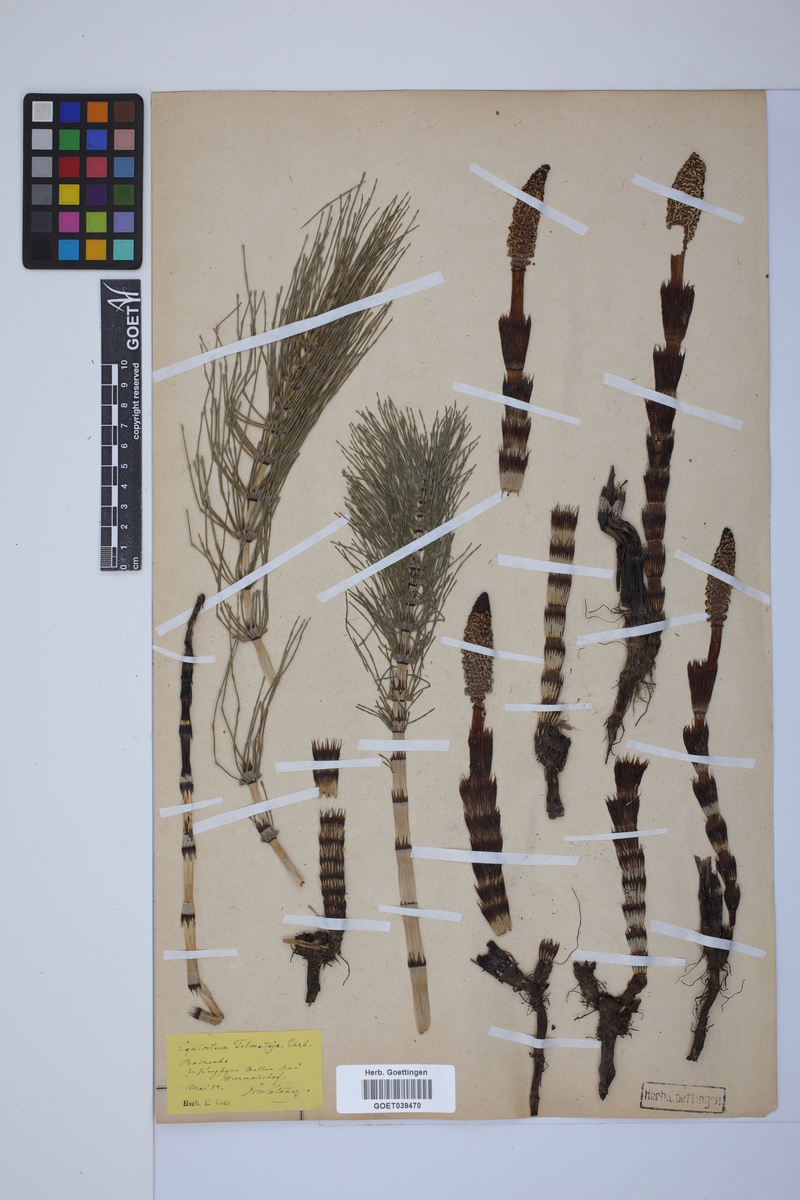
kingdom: Plantae
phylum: Tracheophyta
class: Polypodiopsida
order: Equisetales
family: Equisetaceae
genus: Equisetum
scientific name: Equisetum telmateia
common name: Great horsetail
